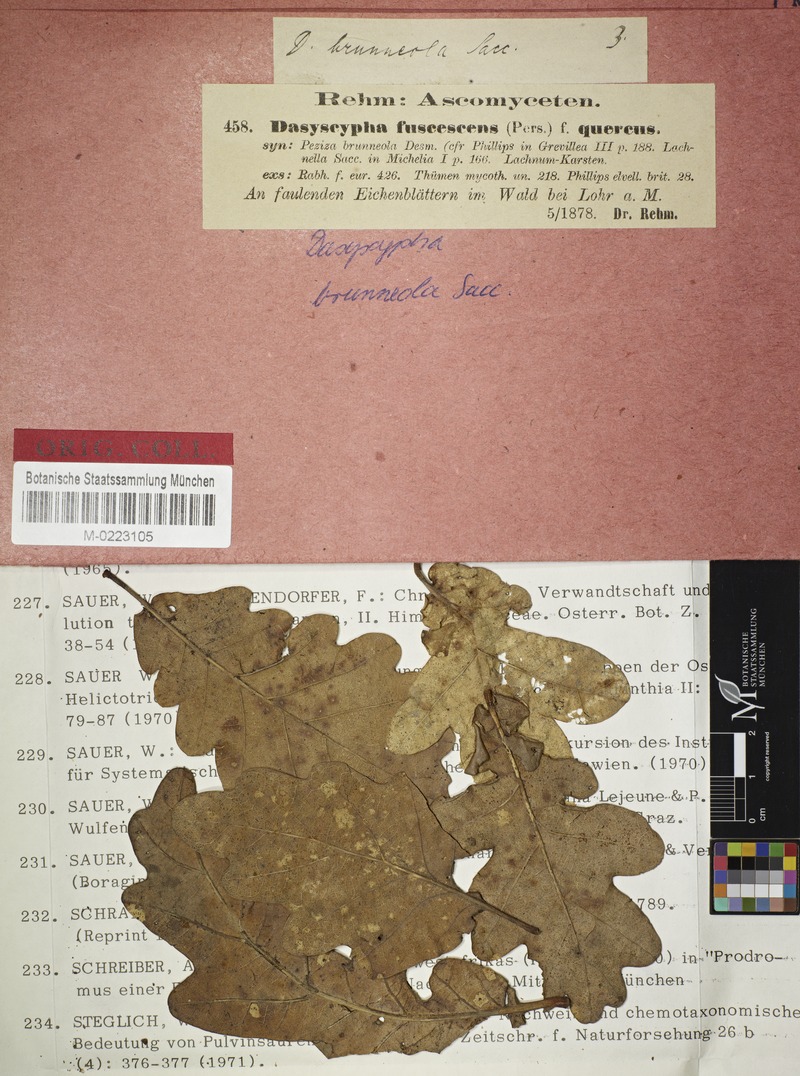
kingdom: Fungi
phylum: Ascomycota
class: Leotiomycetes
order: Helotiales
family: Lachnaceae
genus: Brunnipila
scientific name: Brunnipila fuscescens
